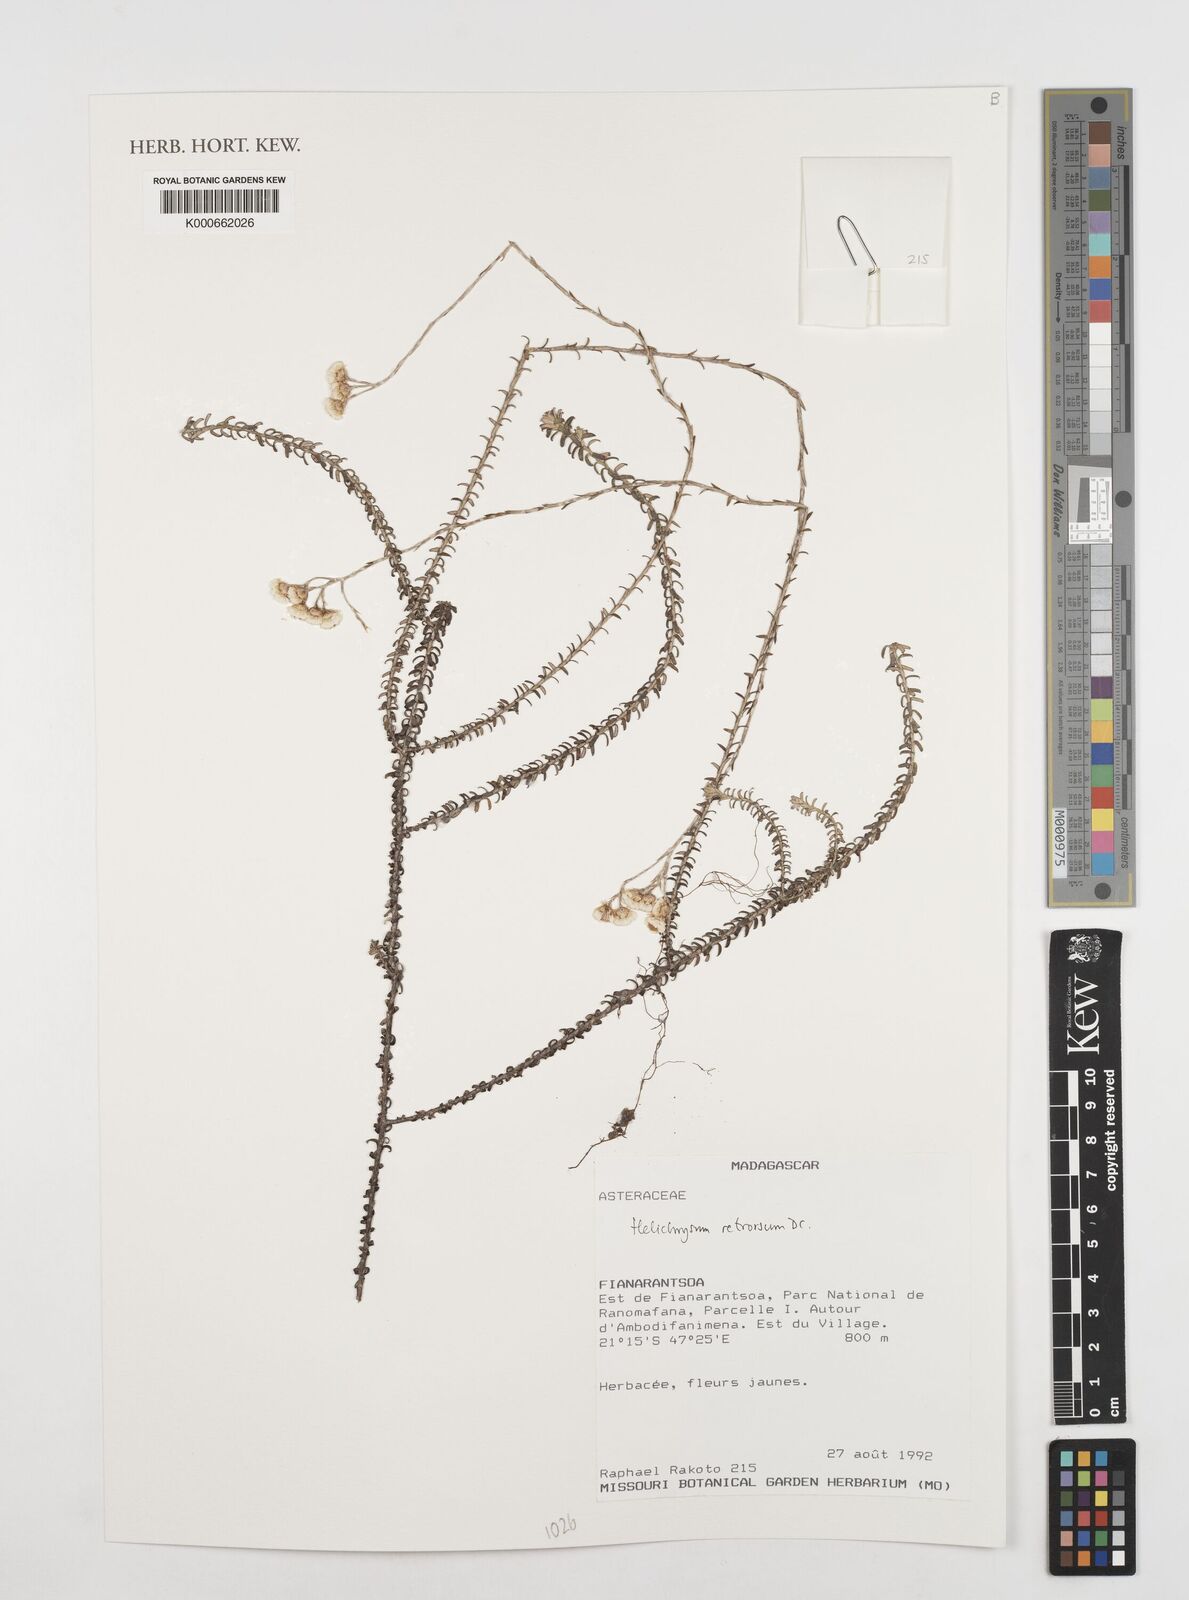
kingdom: Plantae
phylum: Tracheophyta
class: Magnoliopsida
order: Asterales
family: Asteraceae
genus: Helichrysum
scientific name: Helichrysum retrorsum
